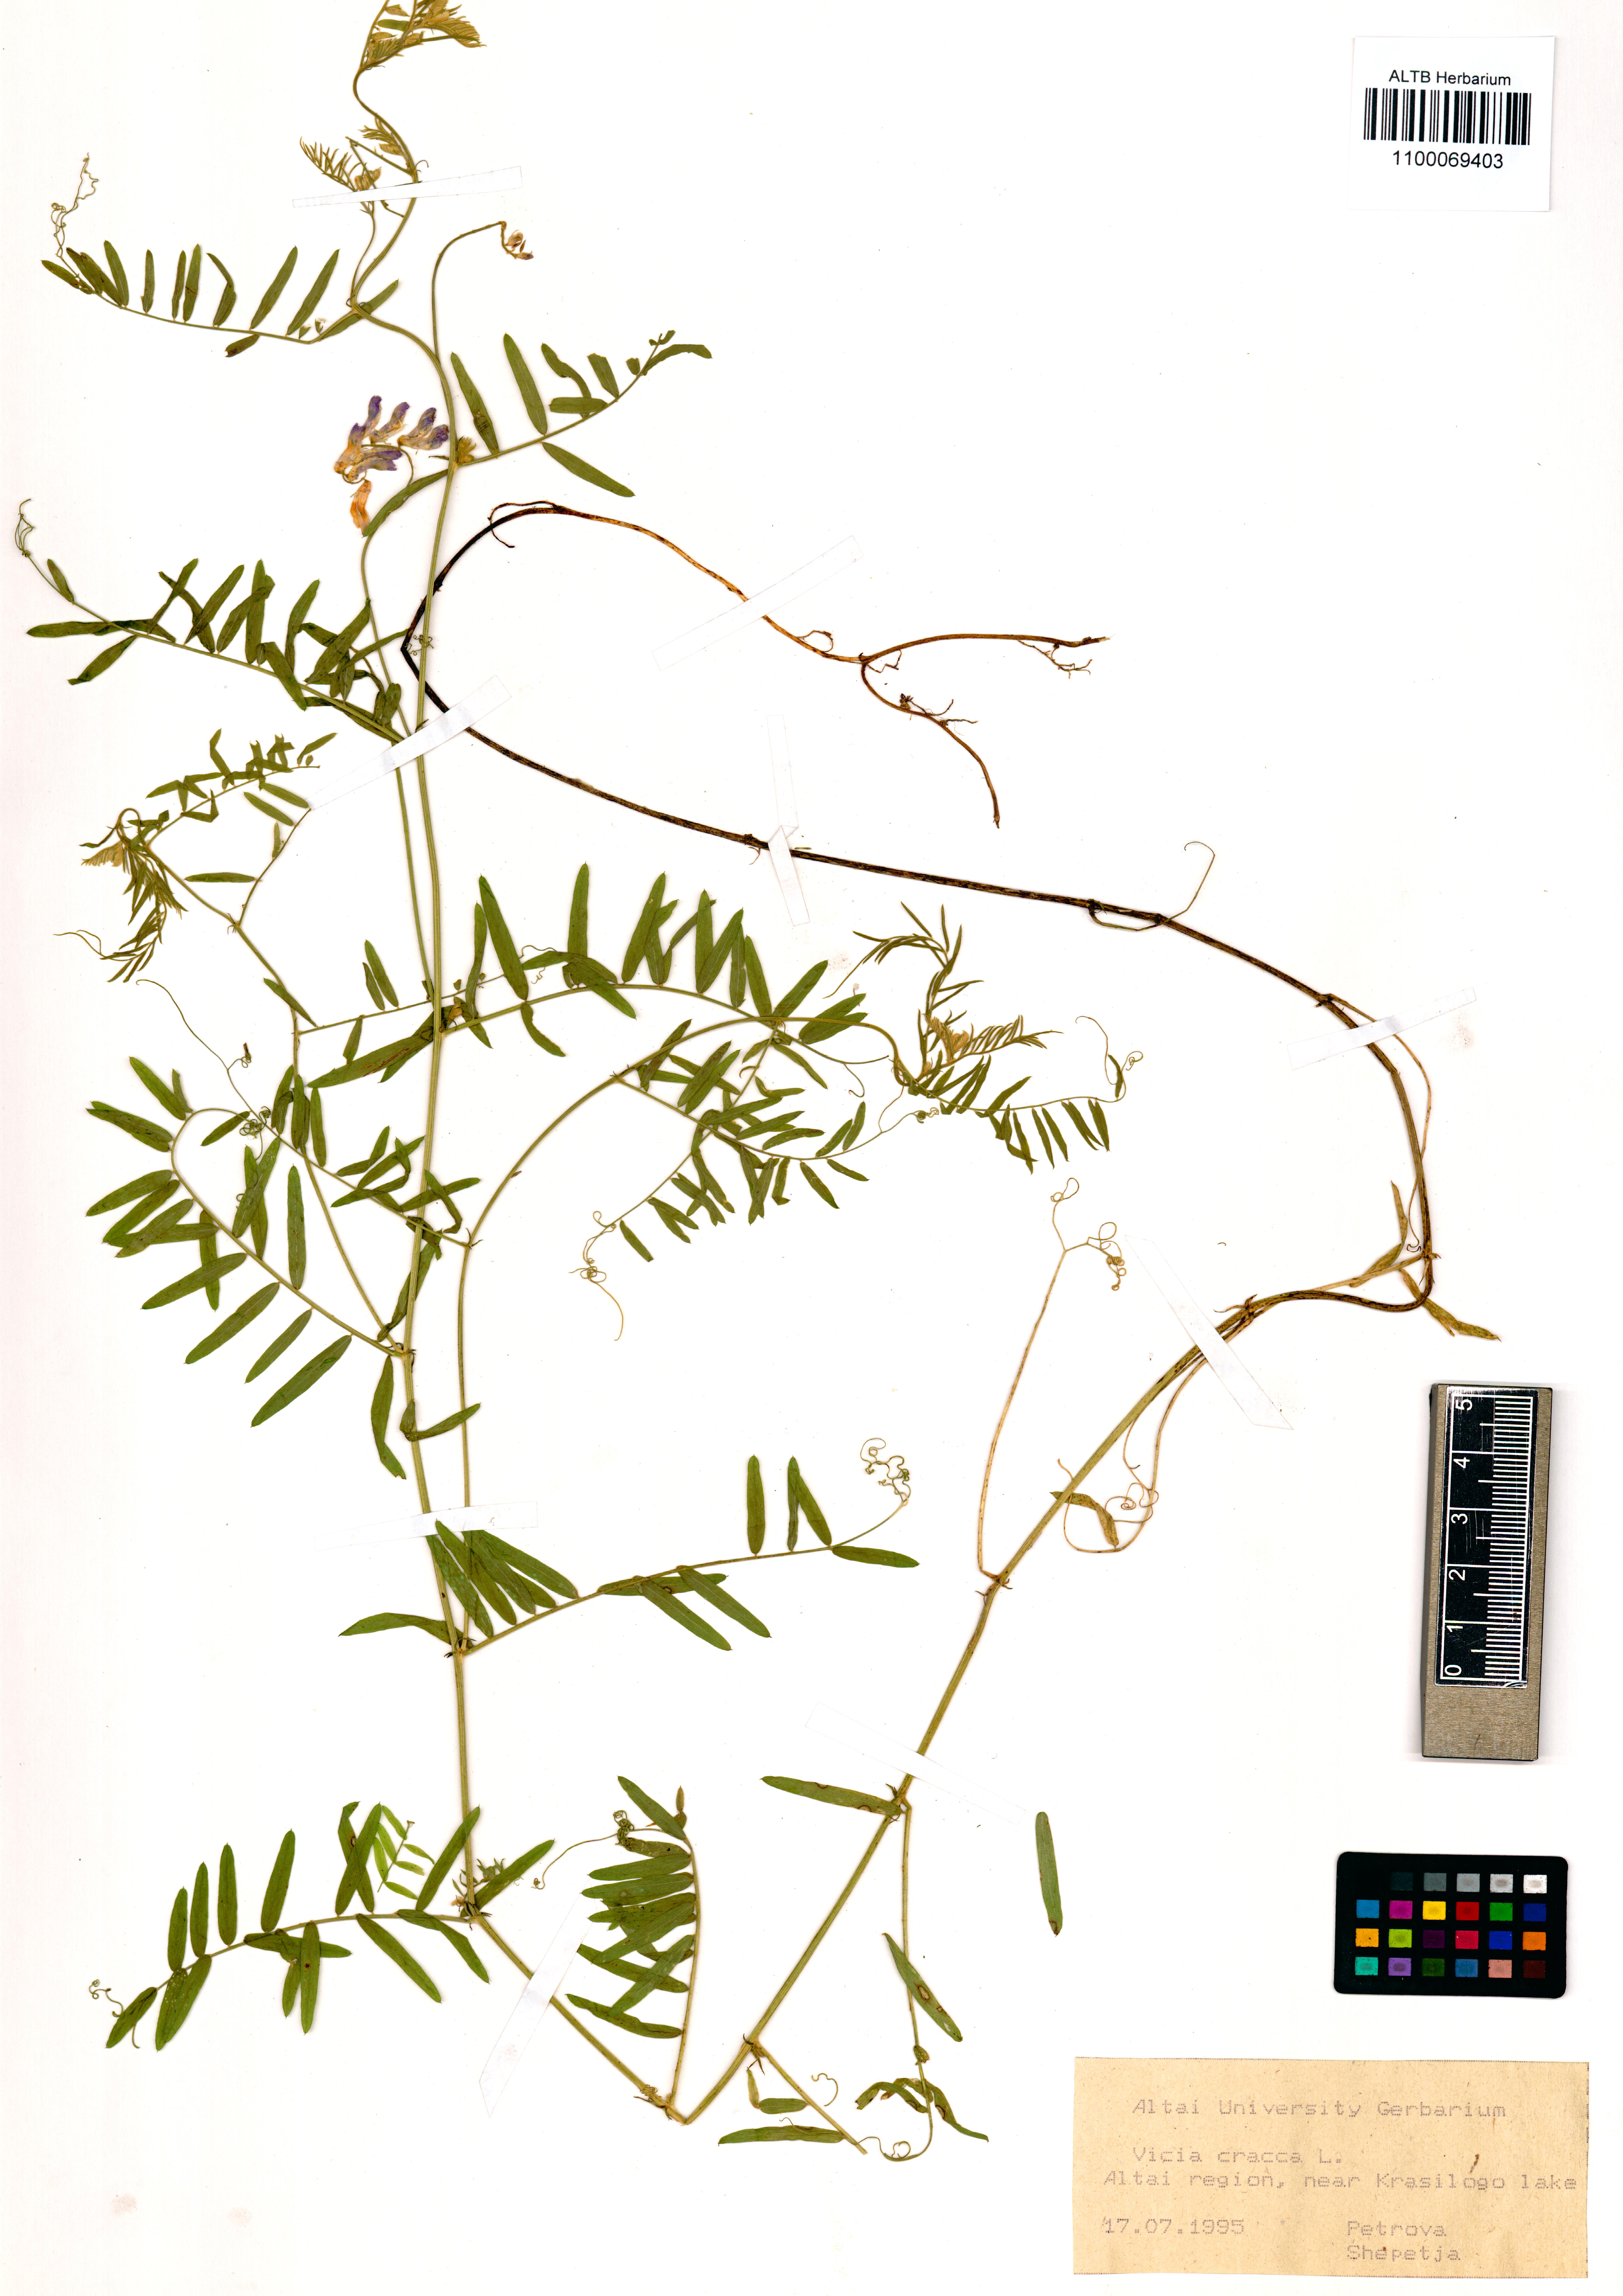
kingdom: Plantae
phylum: Tracheophyta
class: Magnoliopsida
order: Fabales
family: Fabaceae
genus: Vicia
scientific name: Vicia cracca
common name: Bird vetch
